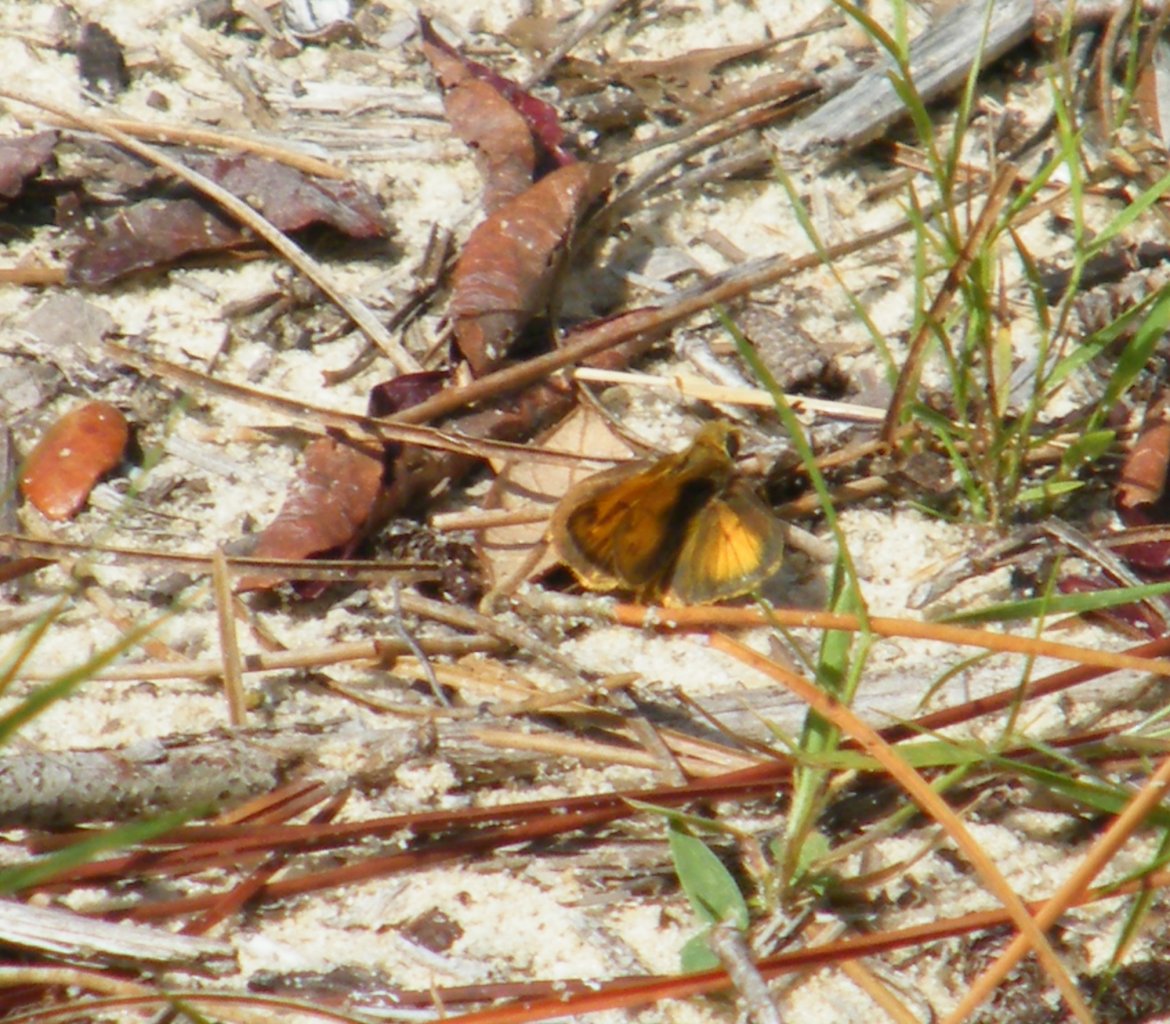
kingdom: Animalia
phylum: Arthropoda
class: Insecta
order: Lepidoptera
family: Hesperiidae
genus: Polites
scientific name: Polites vibex
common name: Whirlabout
